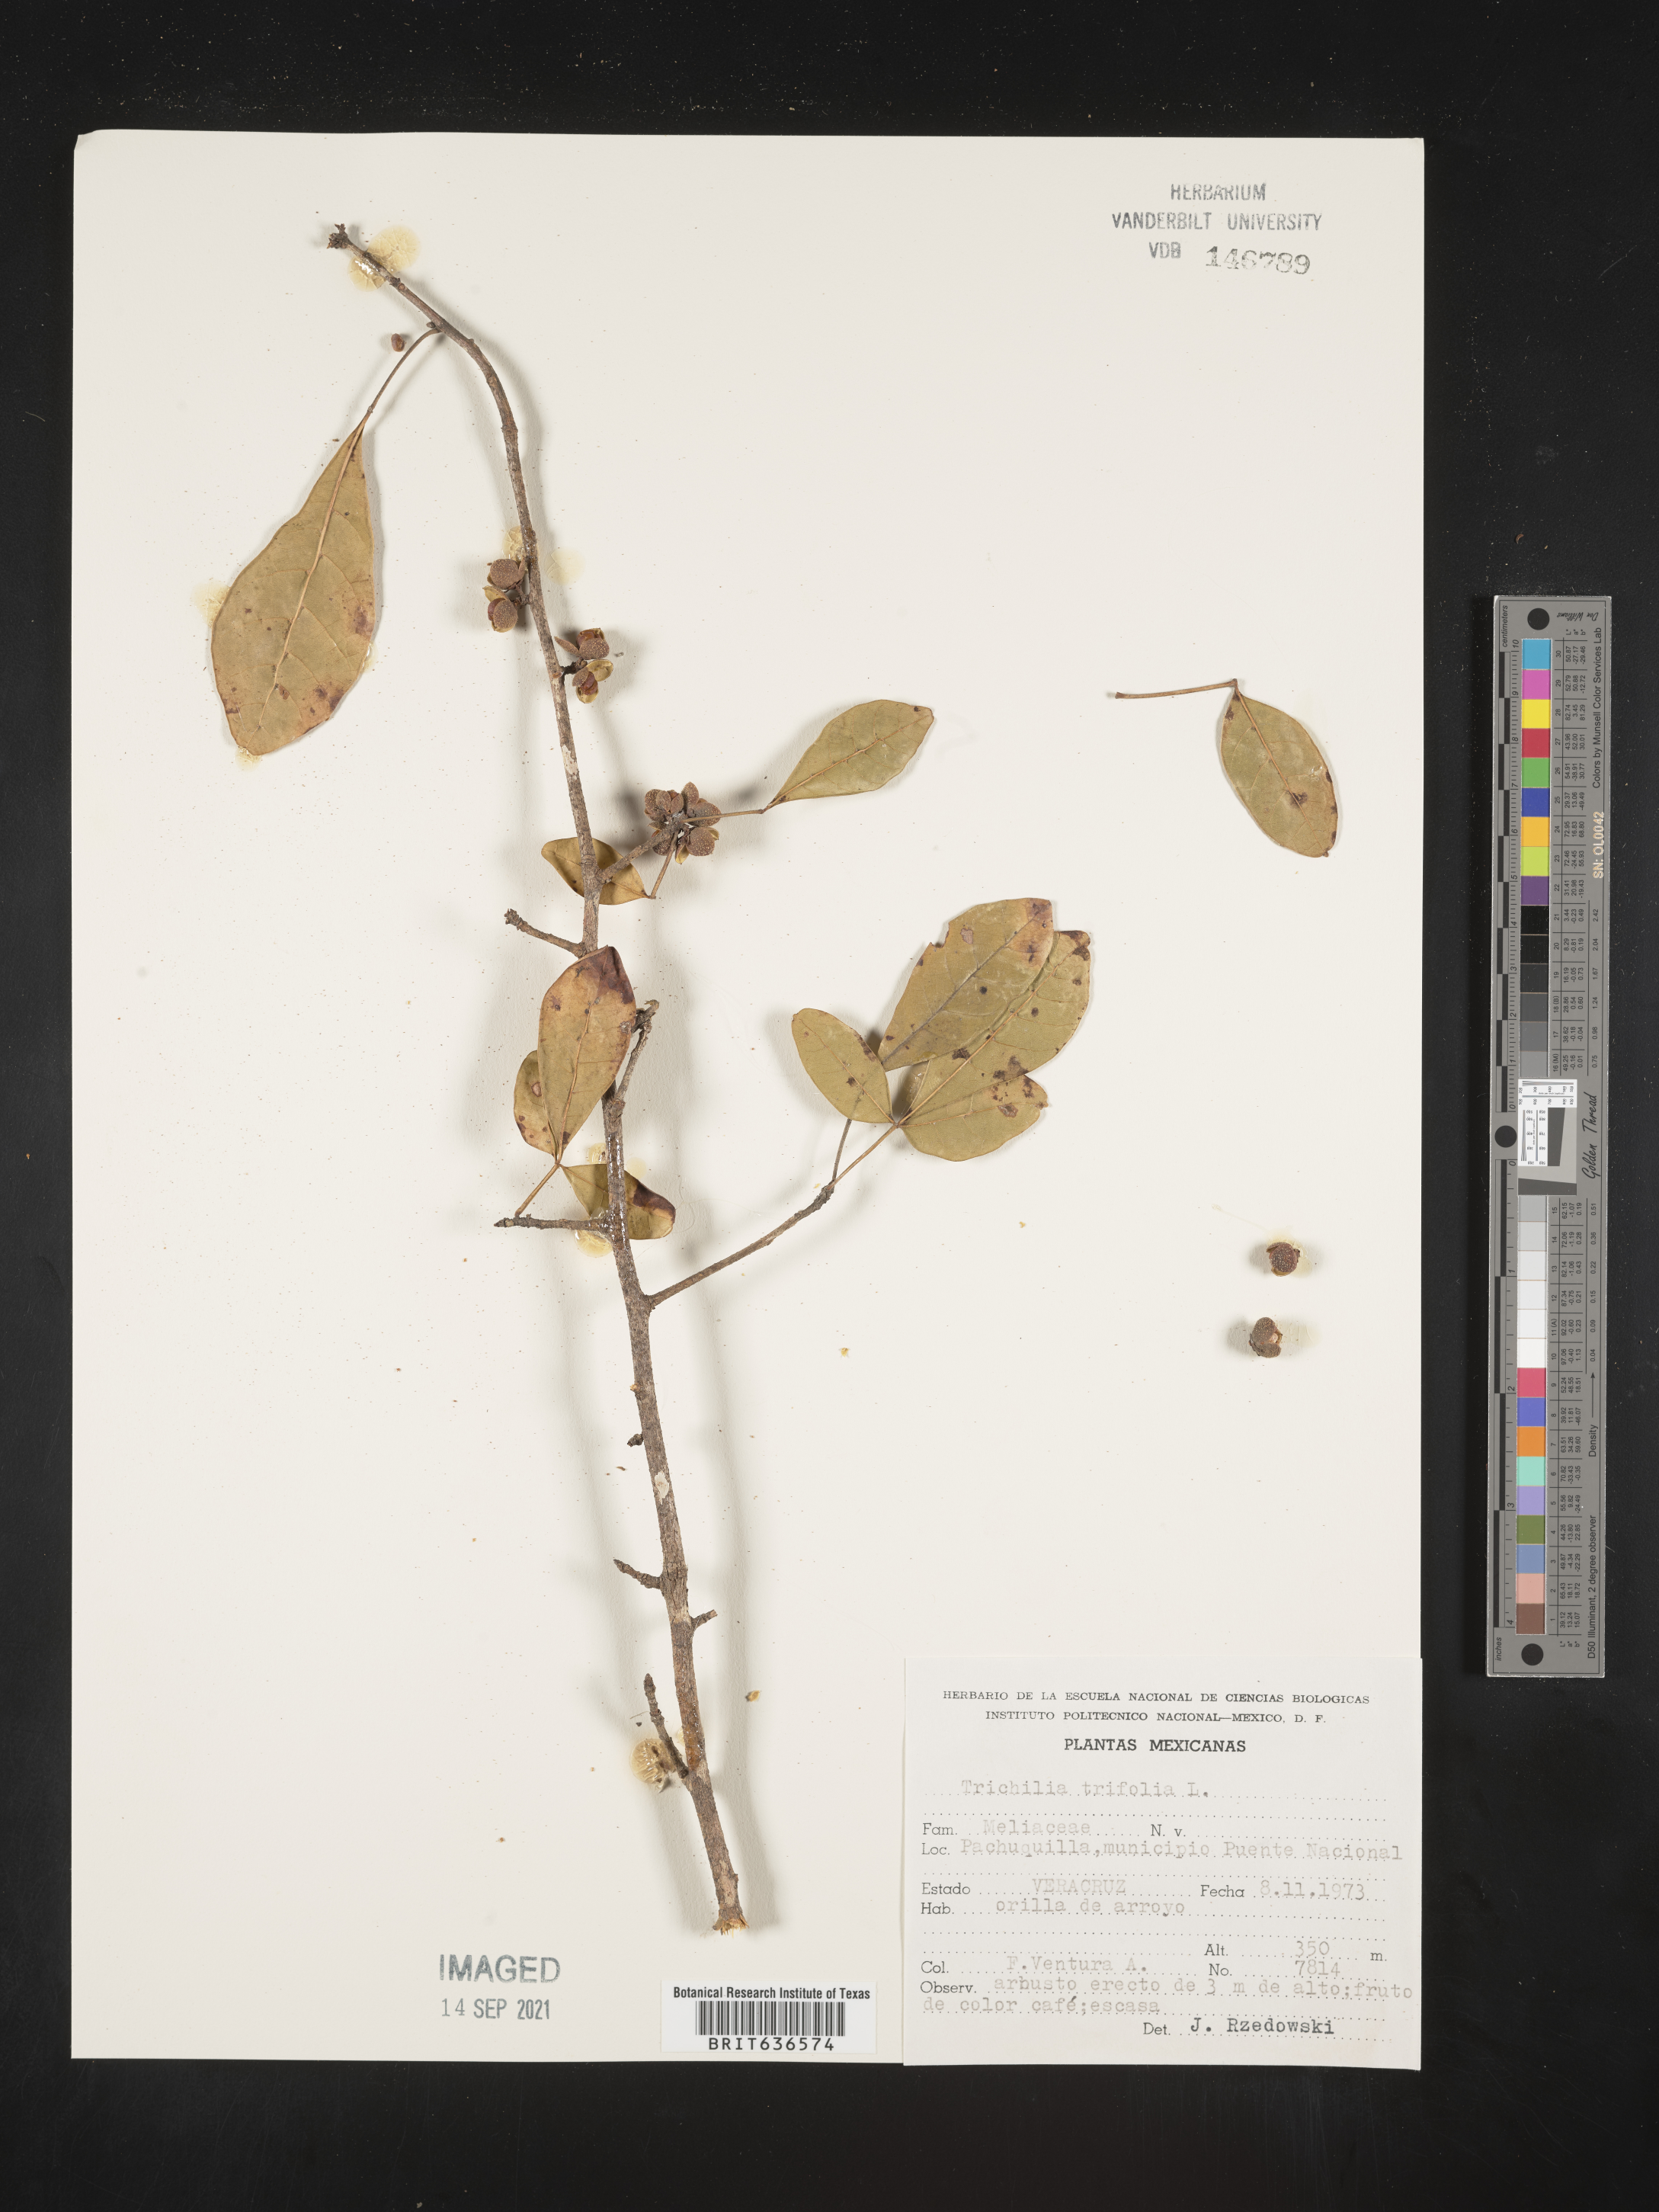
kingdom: Plantae
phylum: Tracheophyta
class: Magnoliopsida
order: Sapindales
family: Meliaceae
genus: Trichilia
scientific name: Trichilia
